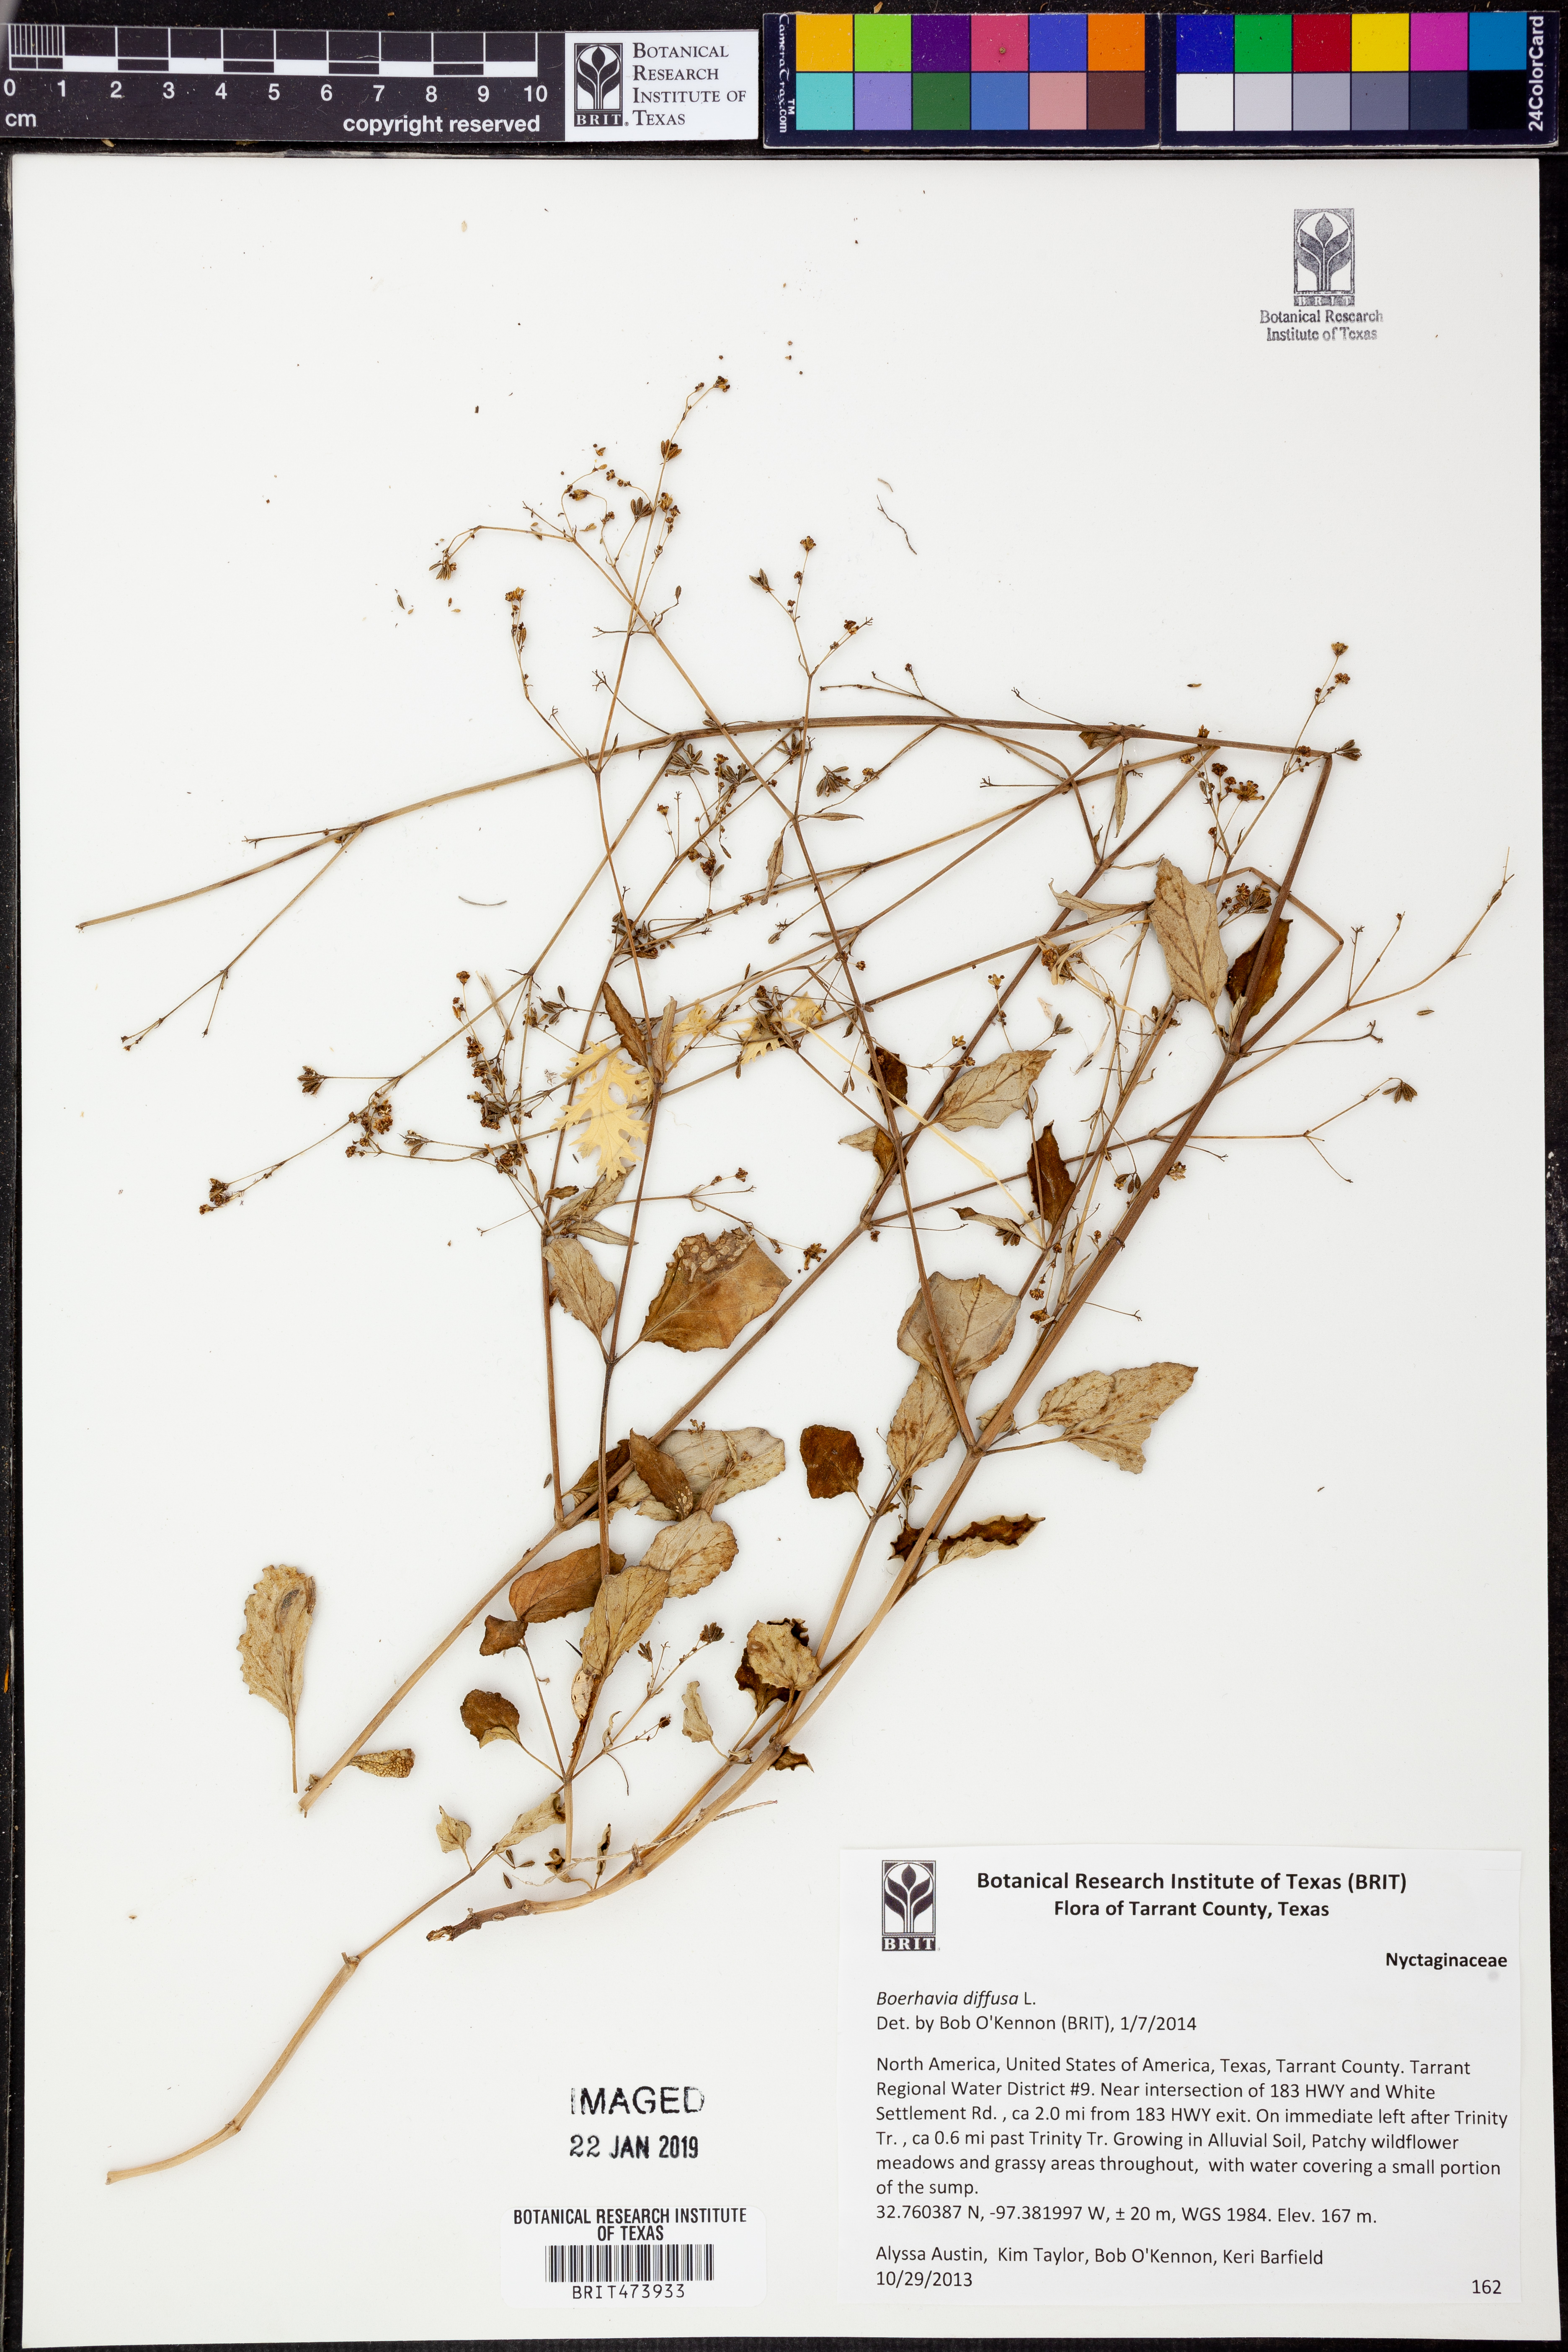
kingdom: Plantae
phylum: Tracheophyta
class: Magnoliopsida
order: Caryophyllales
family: Nyctaginaceae
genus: Boerhavia
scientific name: Boerhavia diffusa
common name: Red spiderling
